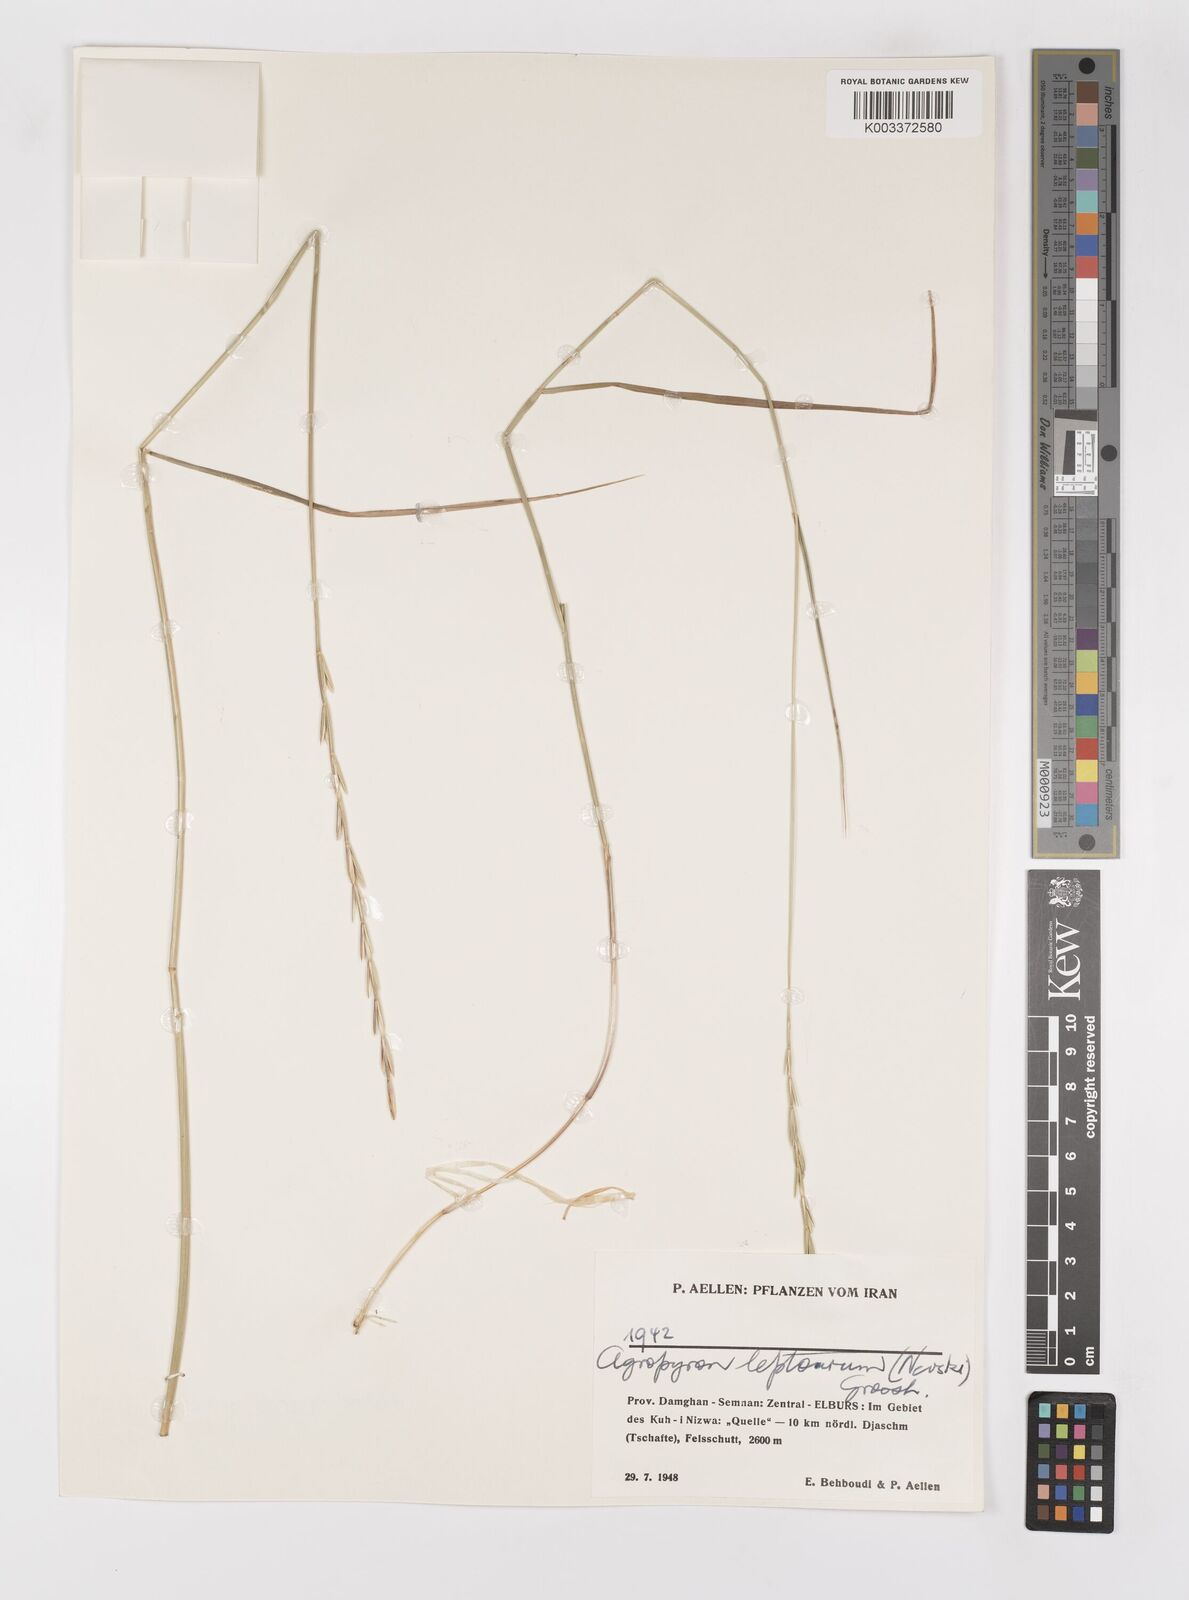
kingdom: Plantae
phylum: Tracheophyta
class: Liliopsida
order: Poales
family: Poaceae
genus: Elymus
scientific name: Elymus transhyrcanus
